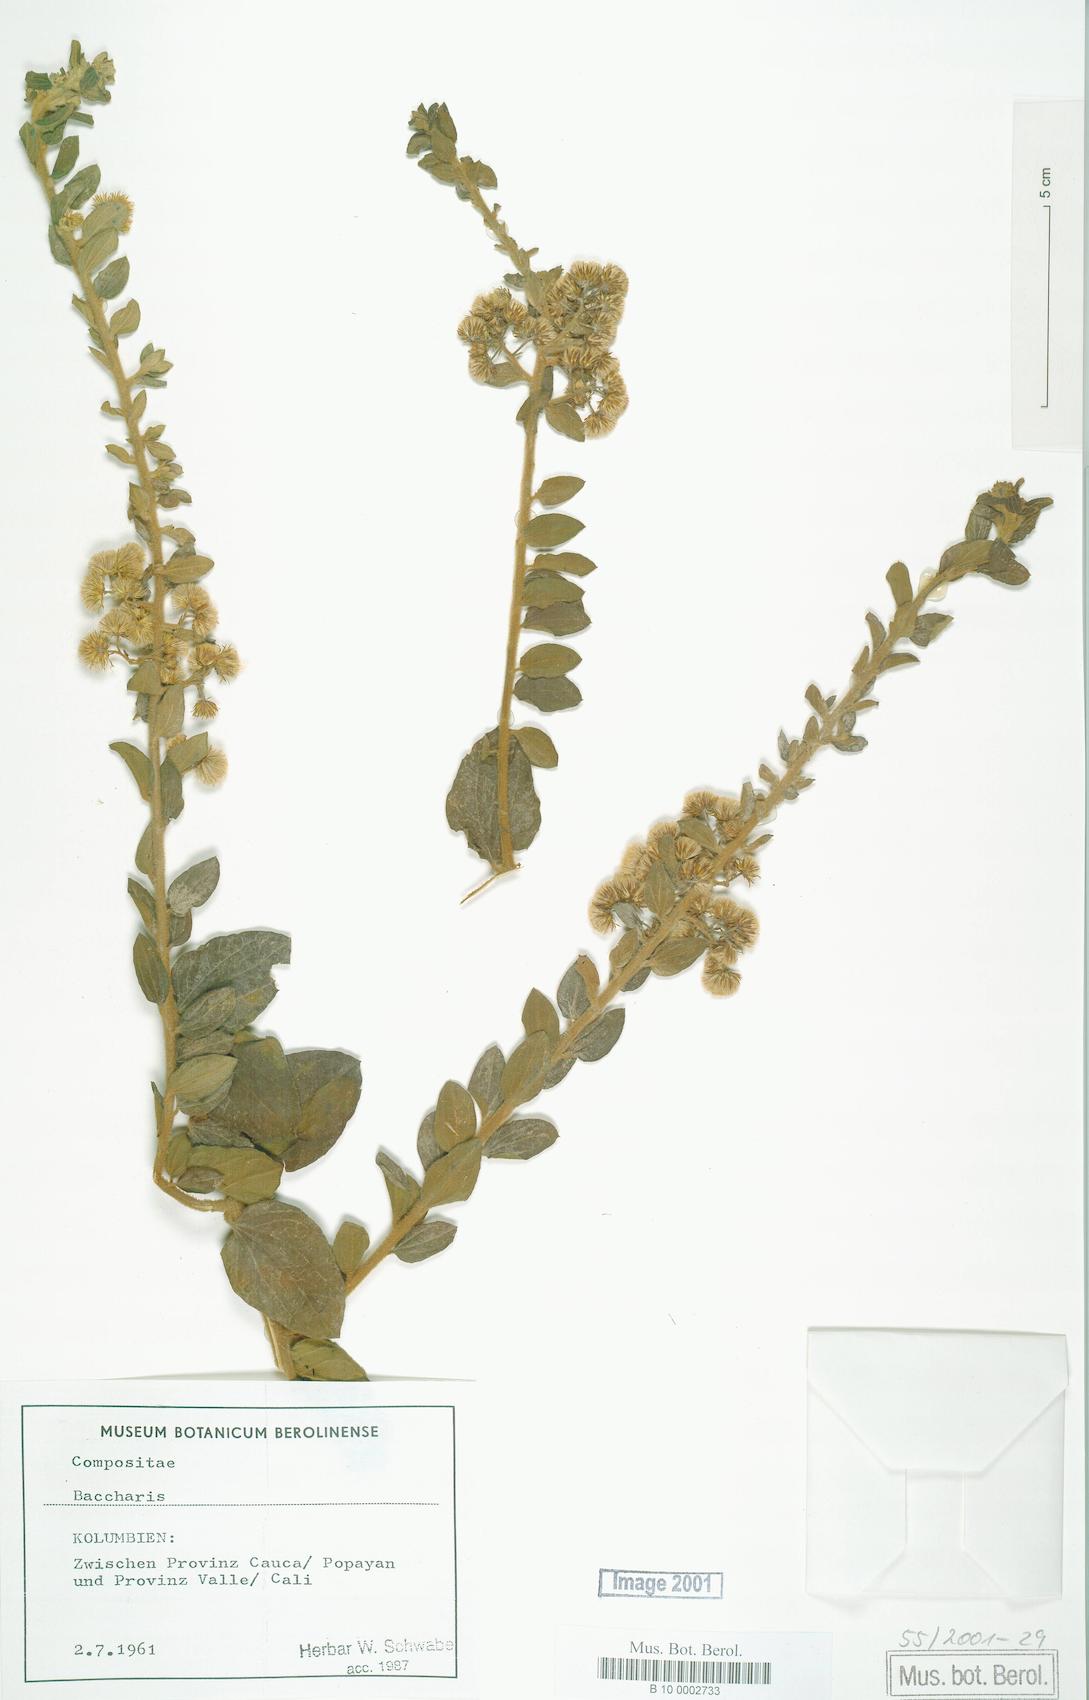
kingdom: Plantae
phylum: Tracheophyta
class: Magnoliopsida
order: Asterales
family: Asteraceae
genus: Baccharis
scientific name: Baccharis
